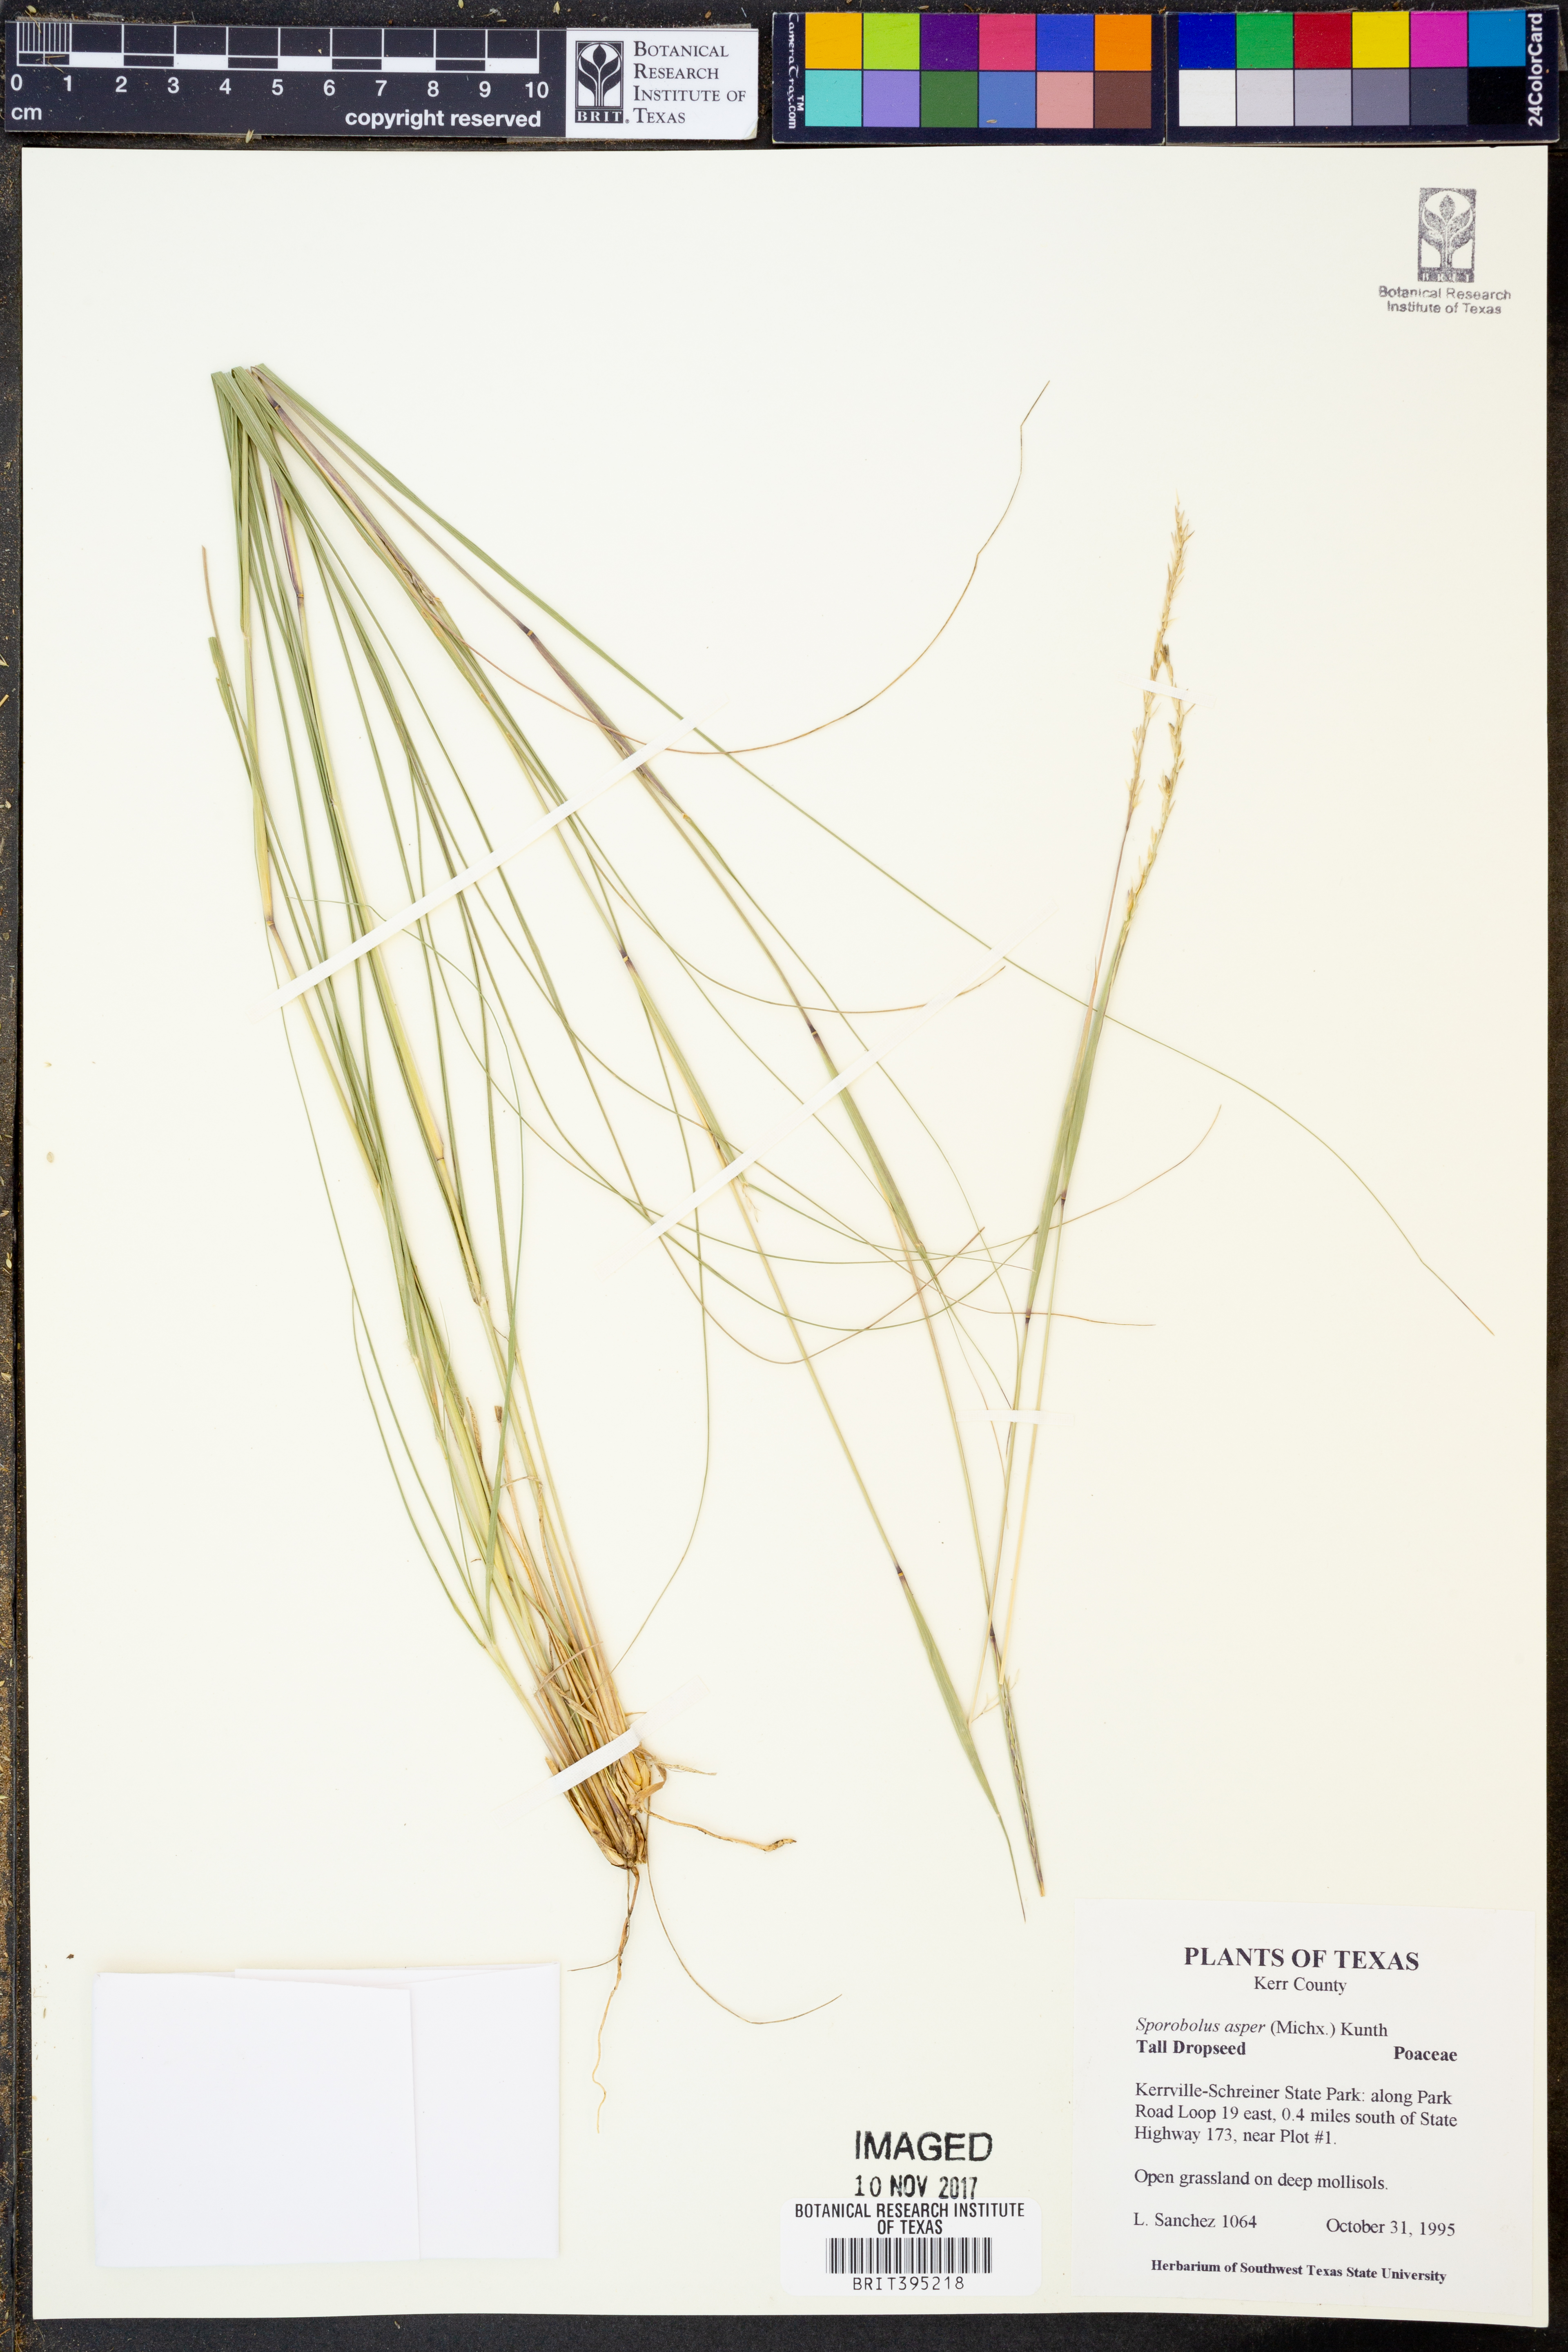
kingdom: Plantae
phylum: Tracheophyta
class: Liliopsida
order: Poales
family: Poaceae
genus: Sporobolus
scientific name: Sporobolus compositus
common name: Rough dropseed
